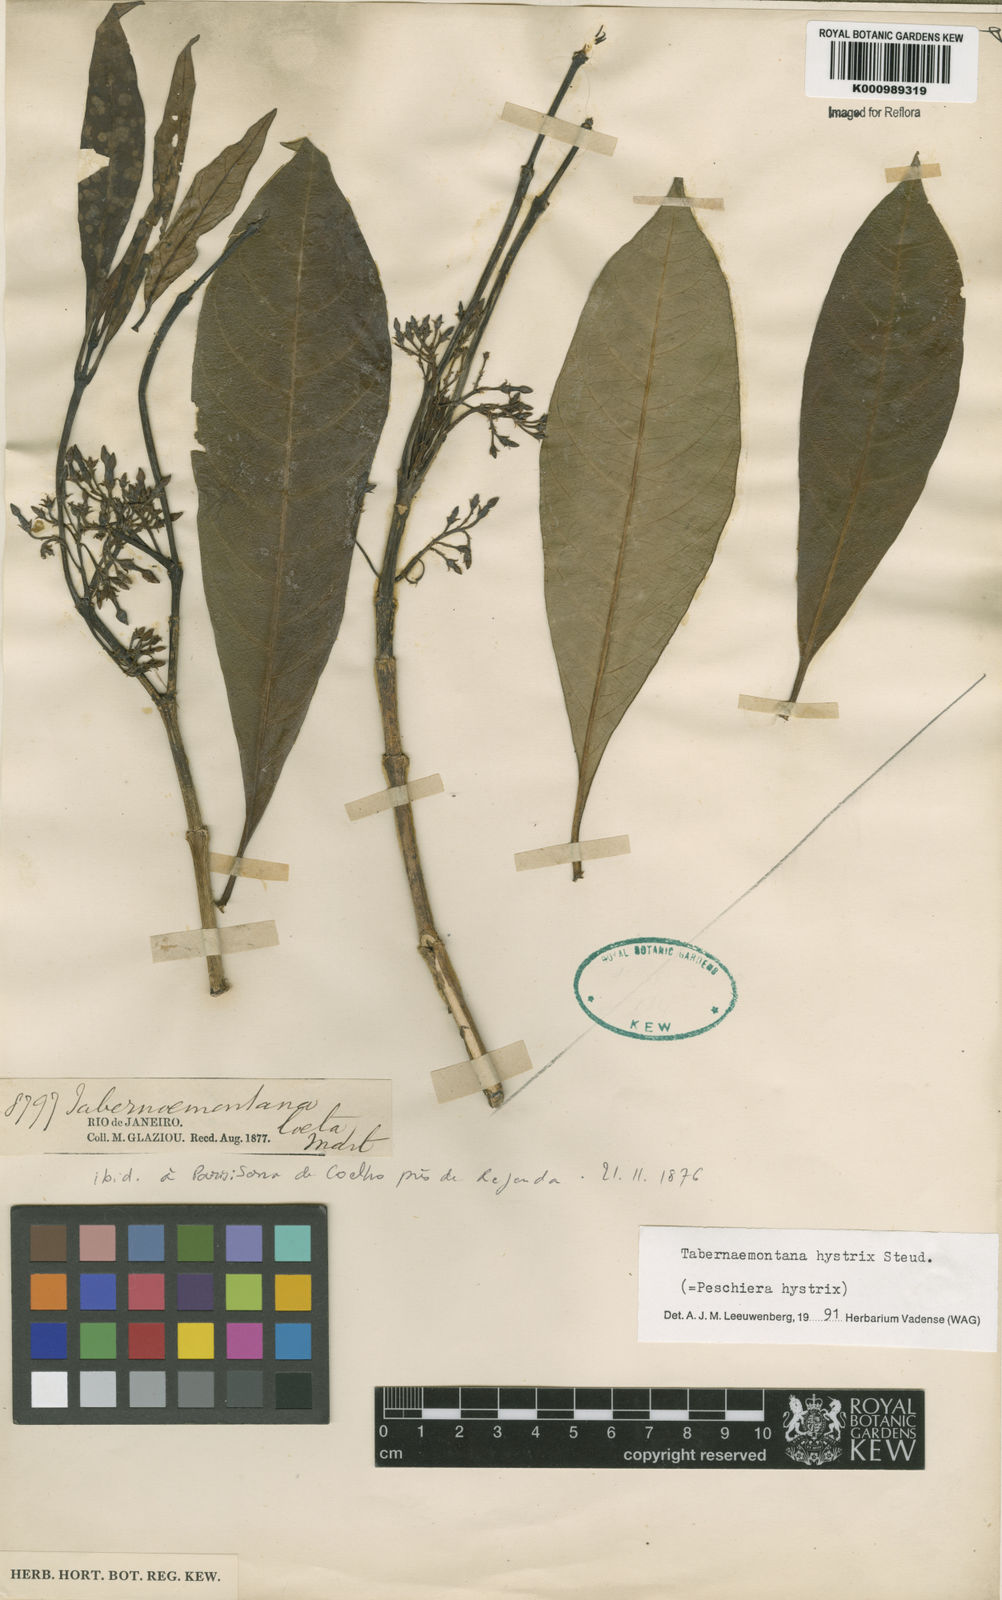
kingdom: Plantae
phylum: Tracheophyta
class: Magnoliopsida
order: Gentianales
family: Apocynaceae
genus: Tabernaemontana
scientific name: Tabernaemontana hystrix
